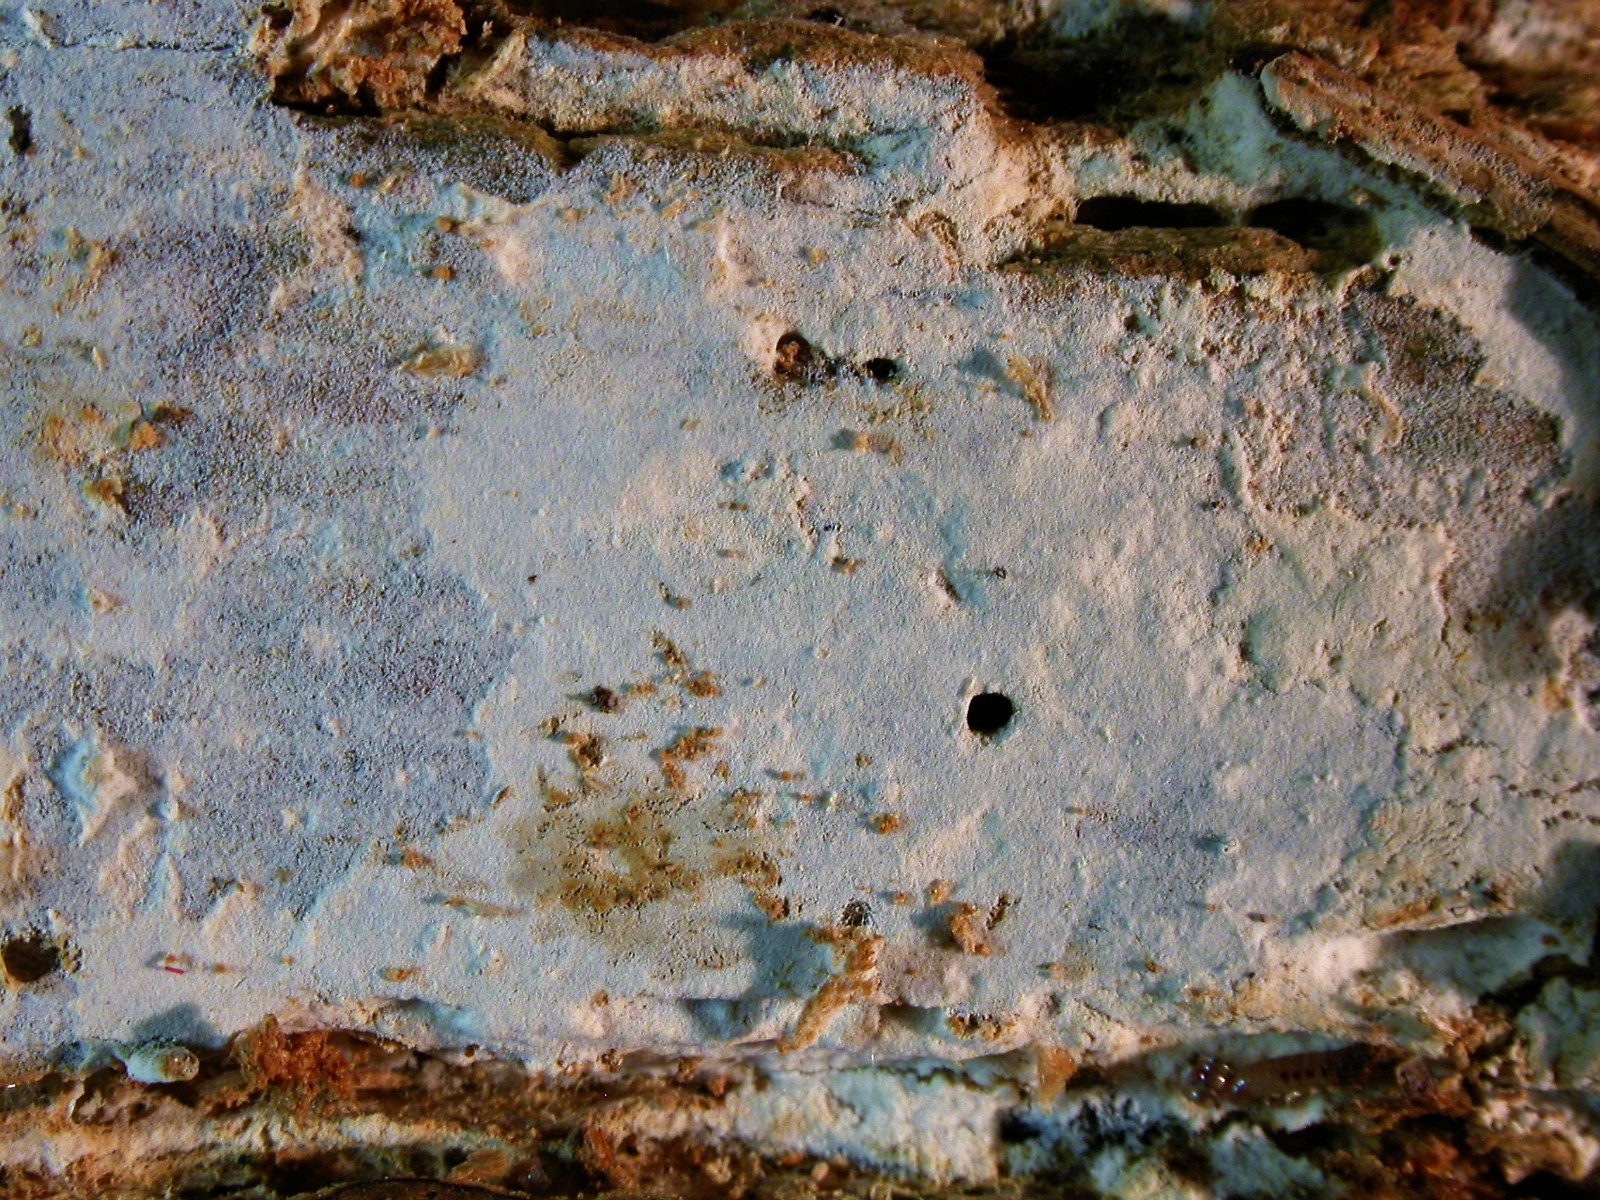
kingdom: Fungi
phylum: Basidiomycota
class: Agaricomycetes
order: Cantharellales
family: Botryobasidiaceae
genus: Botryobasidium
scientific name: Botryobasidium subcoronatum
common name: almindelig spindhinde
